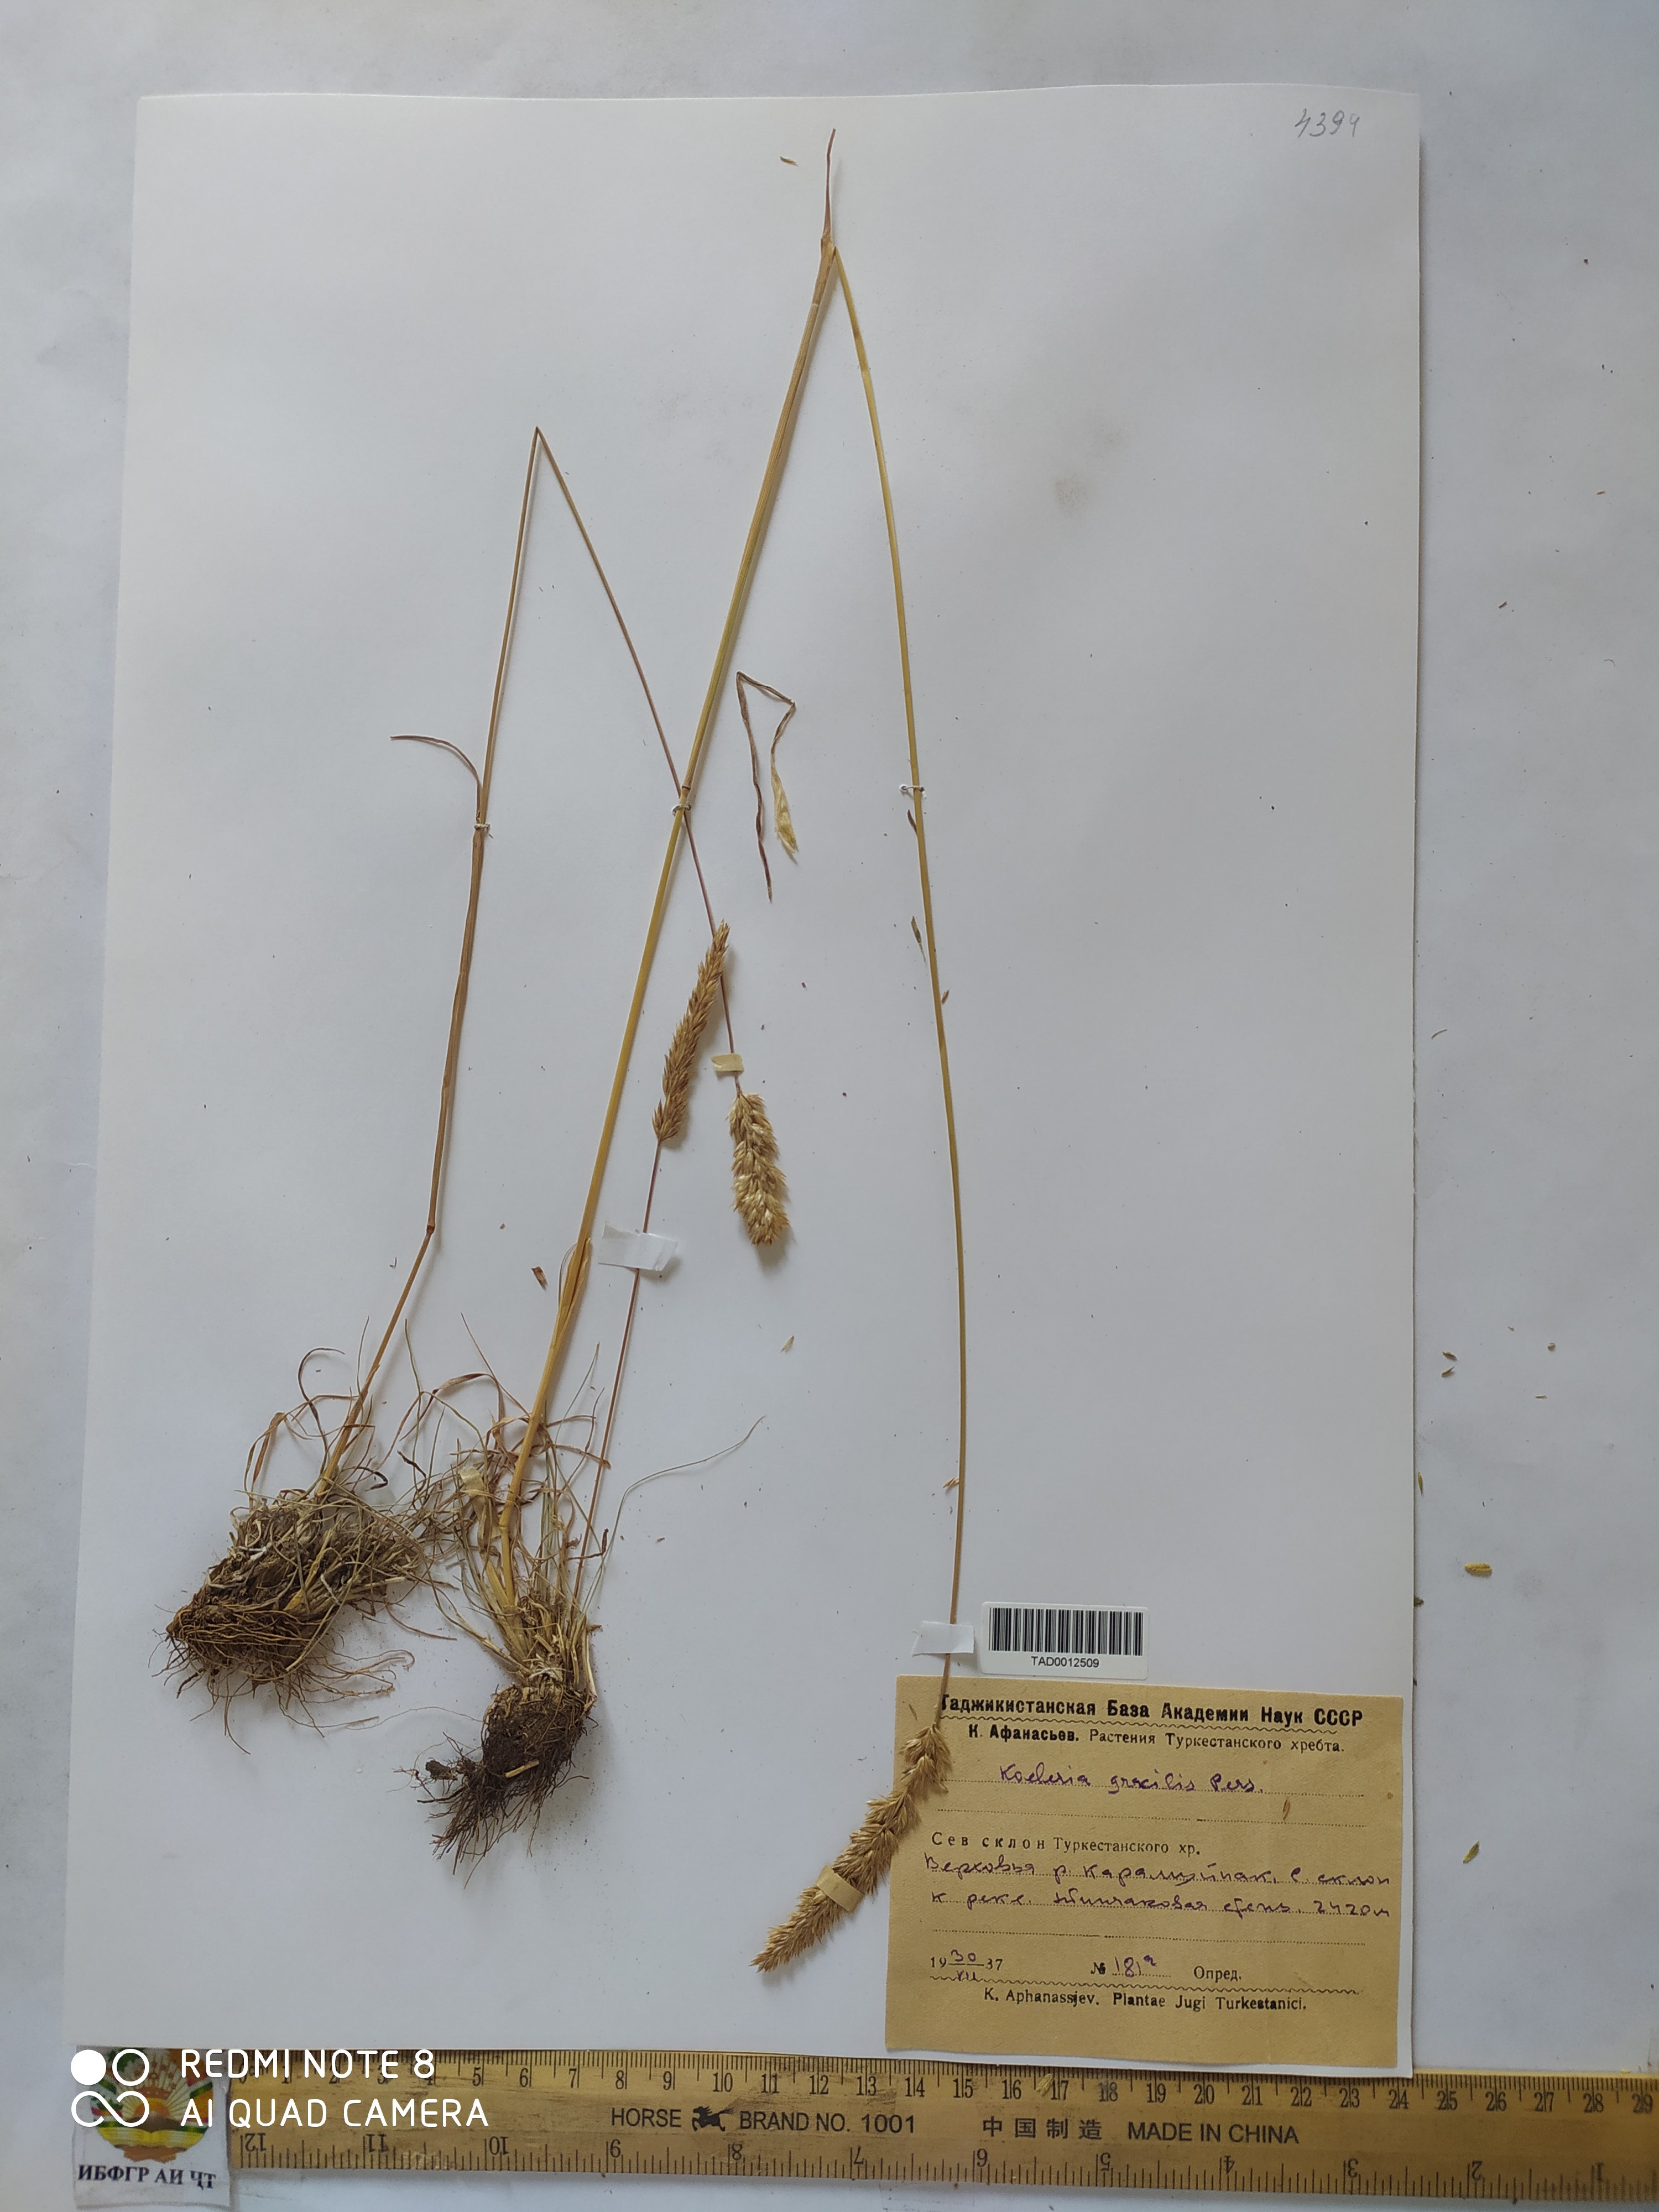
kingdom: Plantae
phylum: Tracheophyta
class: Liliopsida
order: Poales
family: Poaceae
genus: Koeleria
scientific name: Koeleria macrantha
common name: Crested hair-grass
